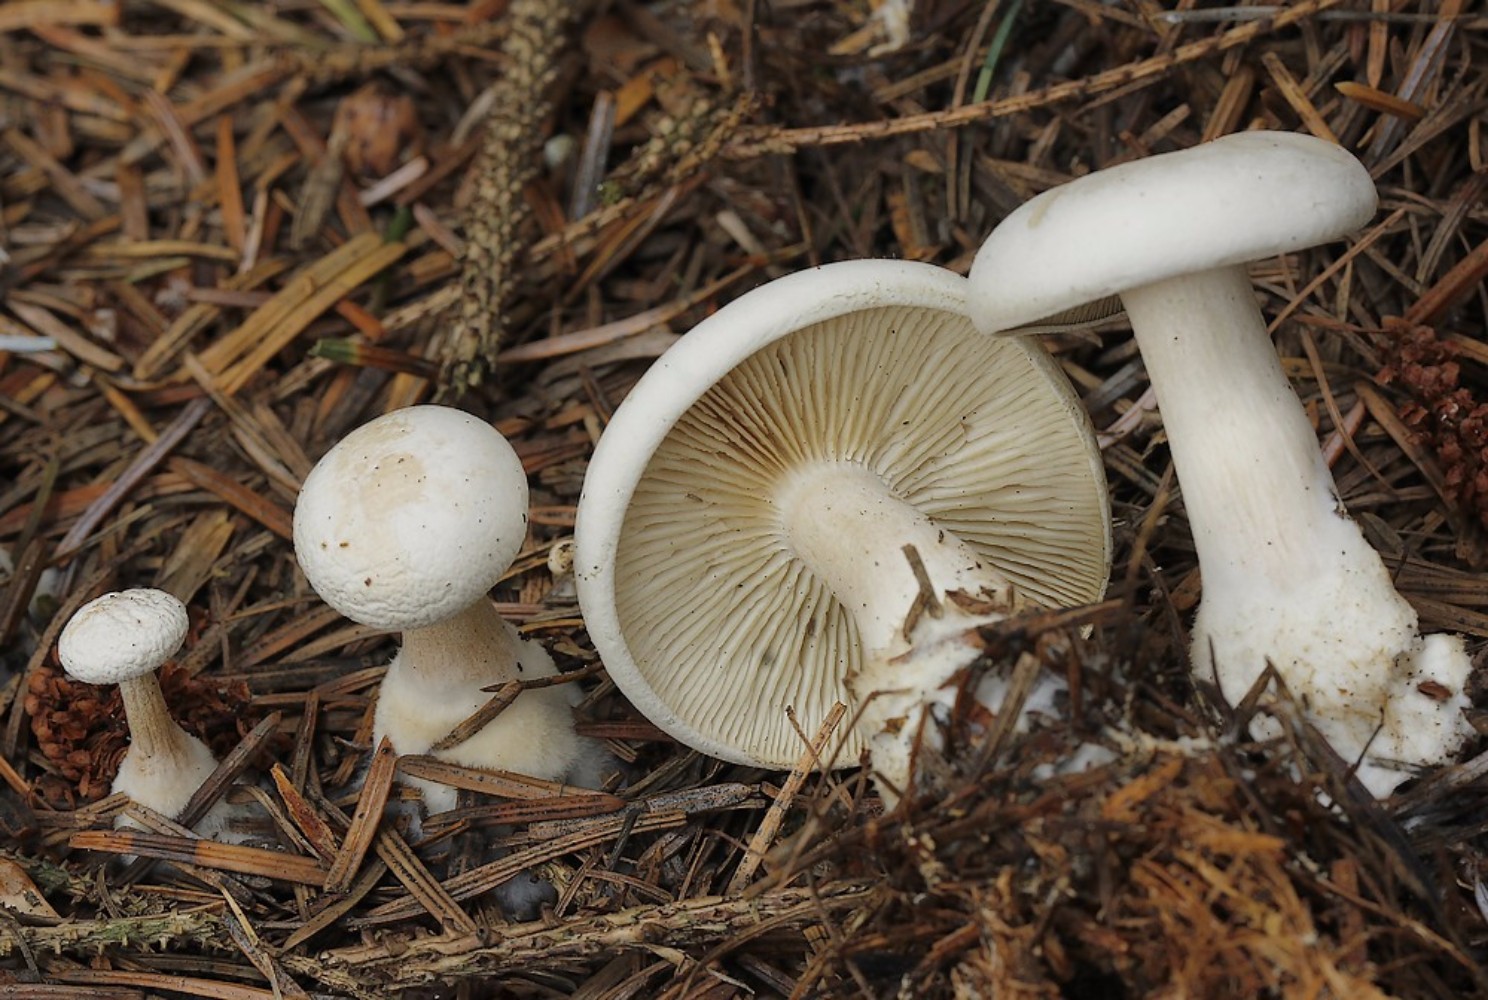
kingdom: Fungi
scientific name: Fungi
